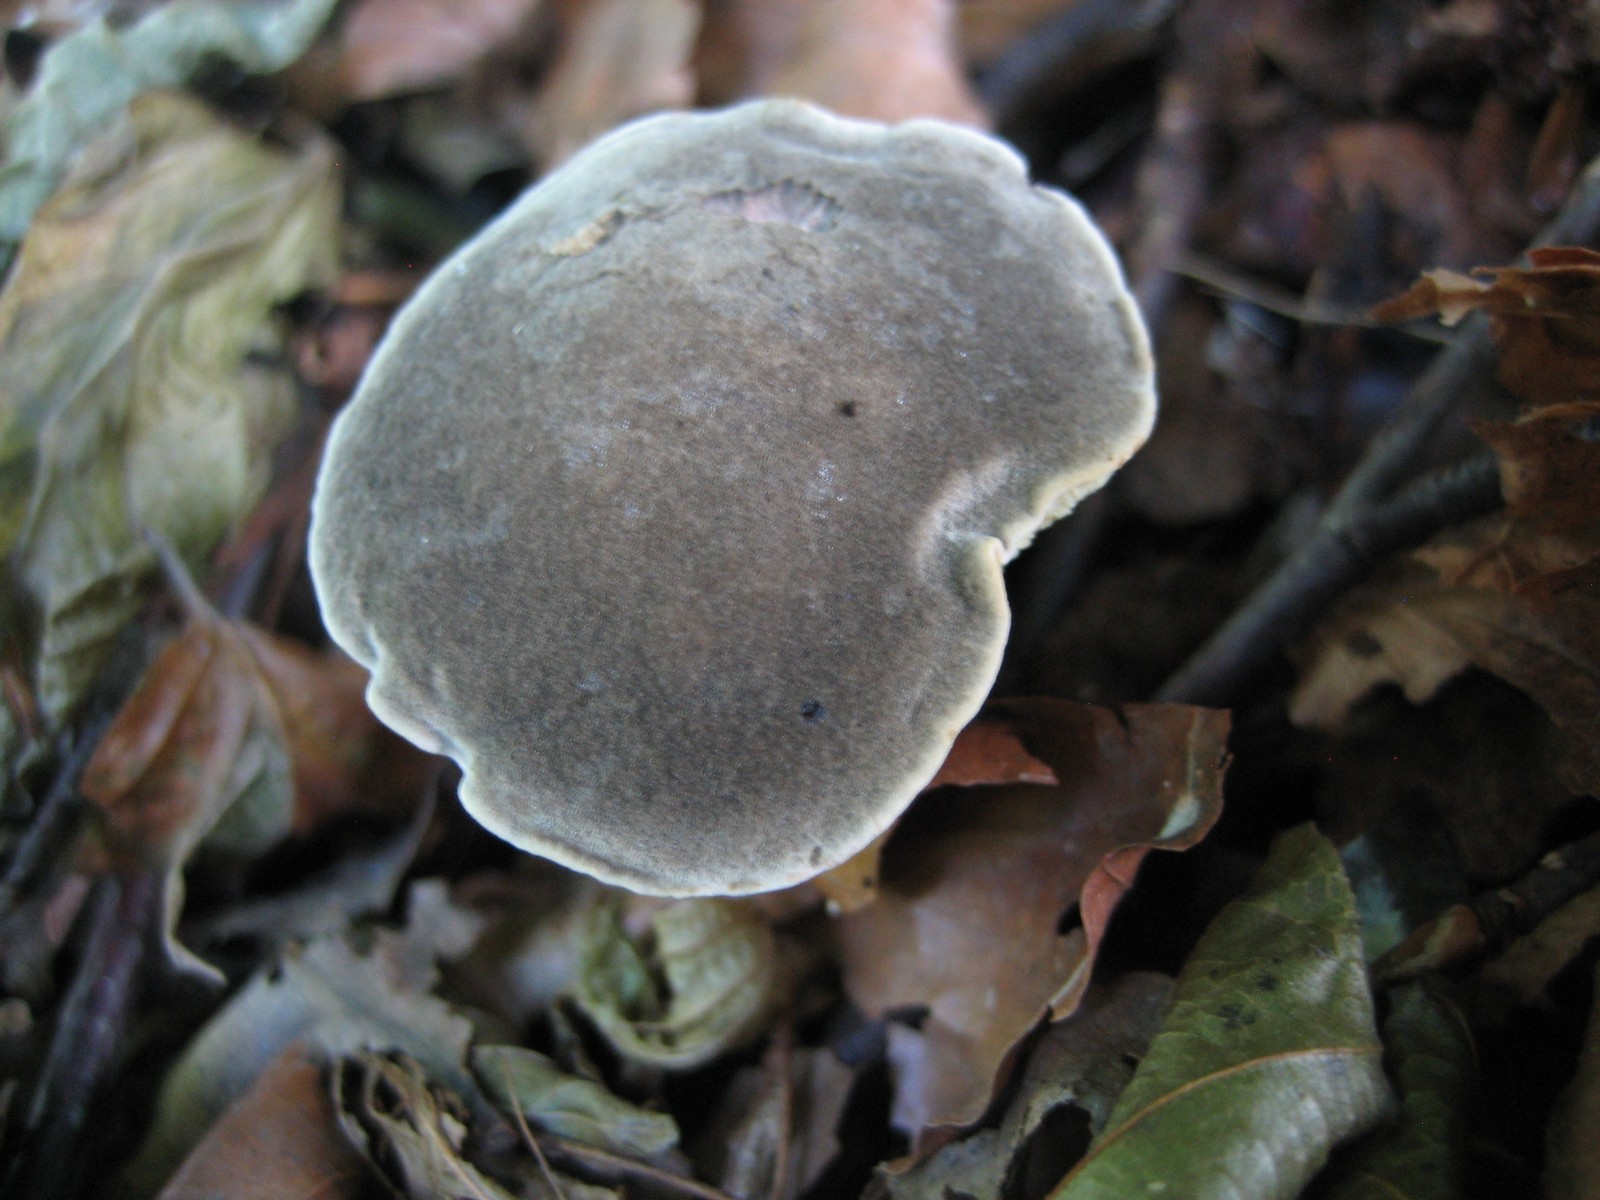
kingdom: Fungi
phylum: Basidiomycota
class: Agaricomycetes
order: Boletales
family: Boletaceae
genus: Xerocomellus
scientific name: Xerocomellus cisalpinus
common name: finsprukken rørhat
